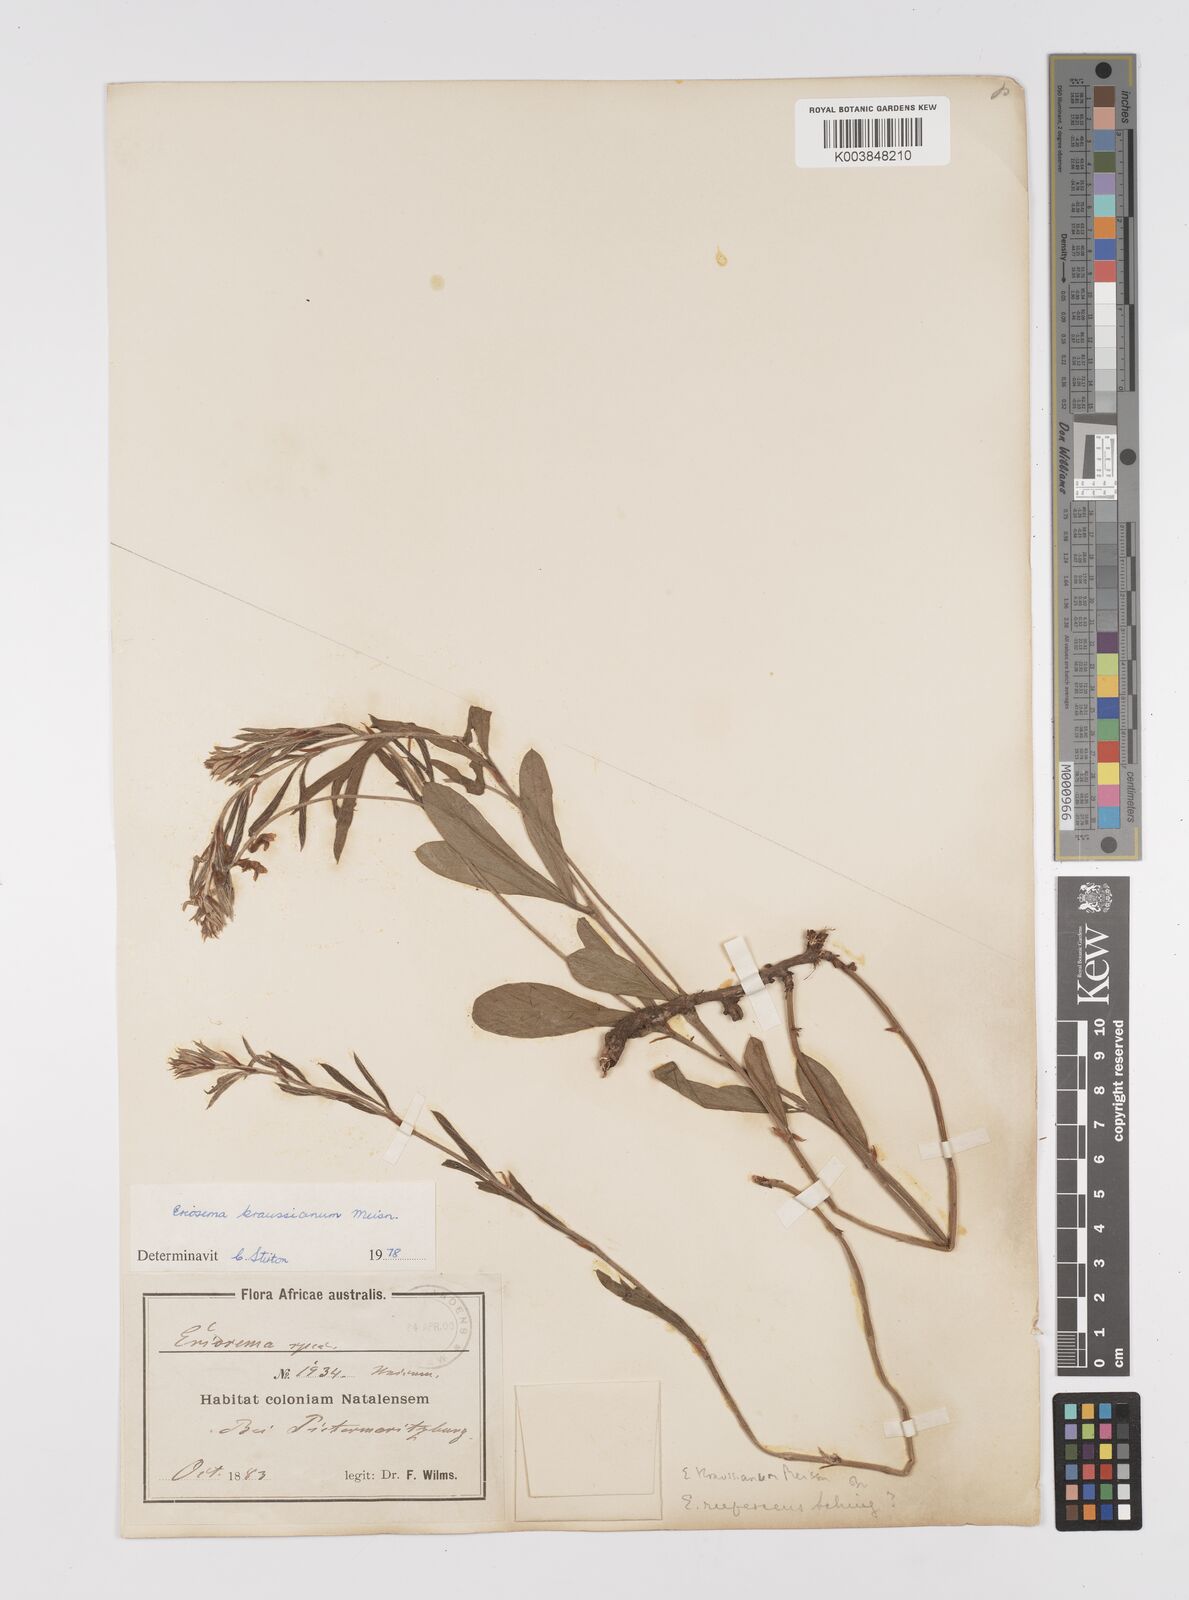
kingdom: Plantae
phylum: Tracheophyta
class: Magnoliopsida
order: Fabales
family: Fabaceae
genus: Eriosema
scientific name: Eriosema kraussianum
